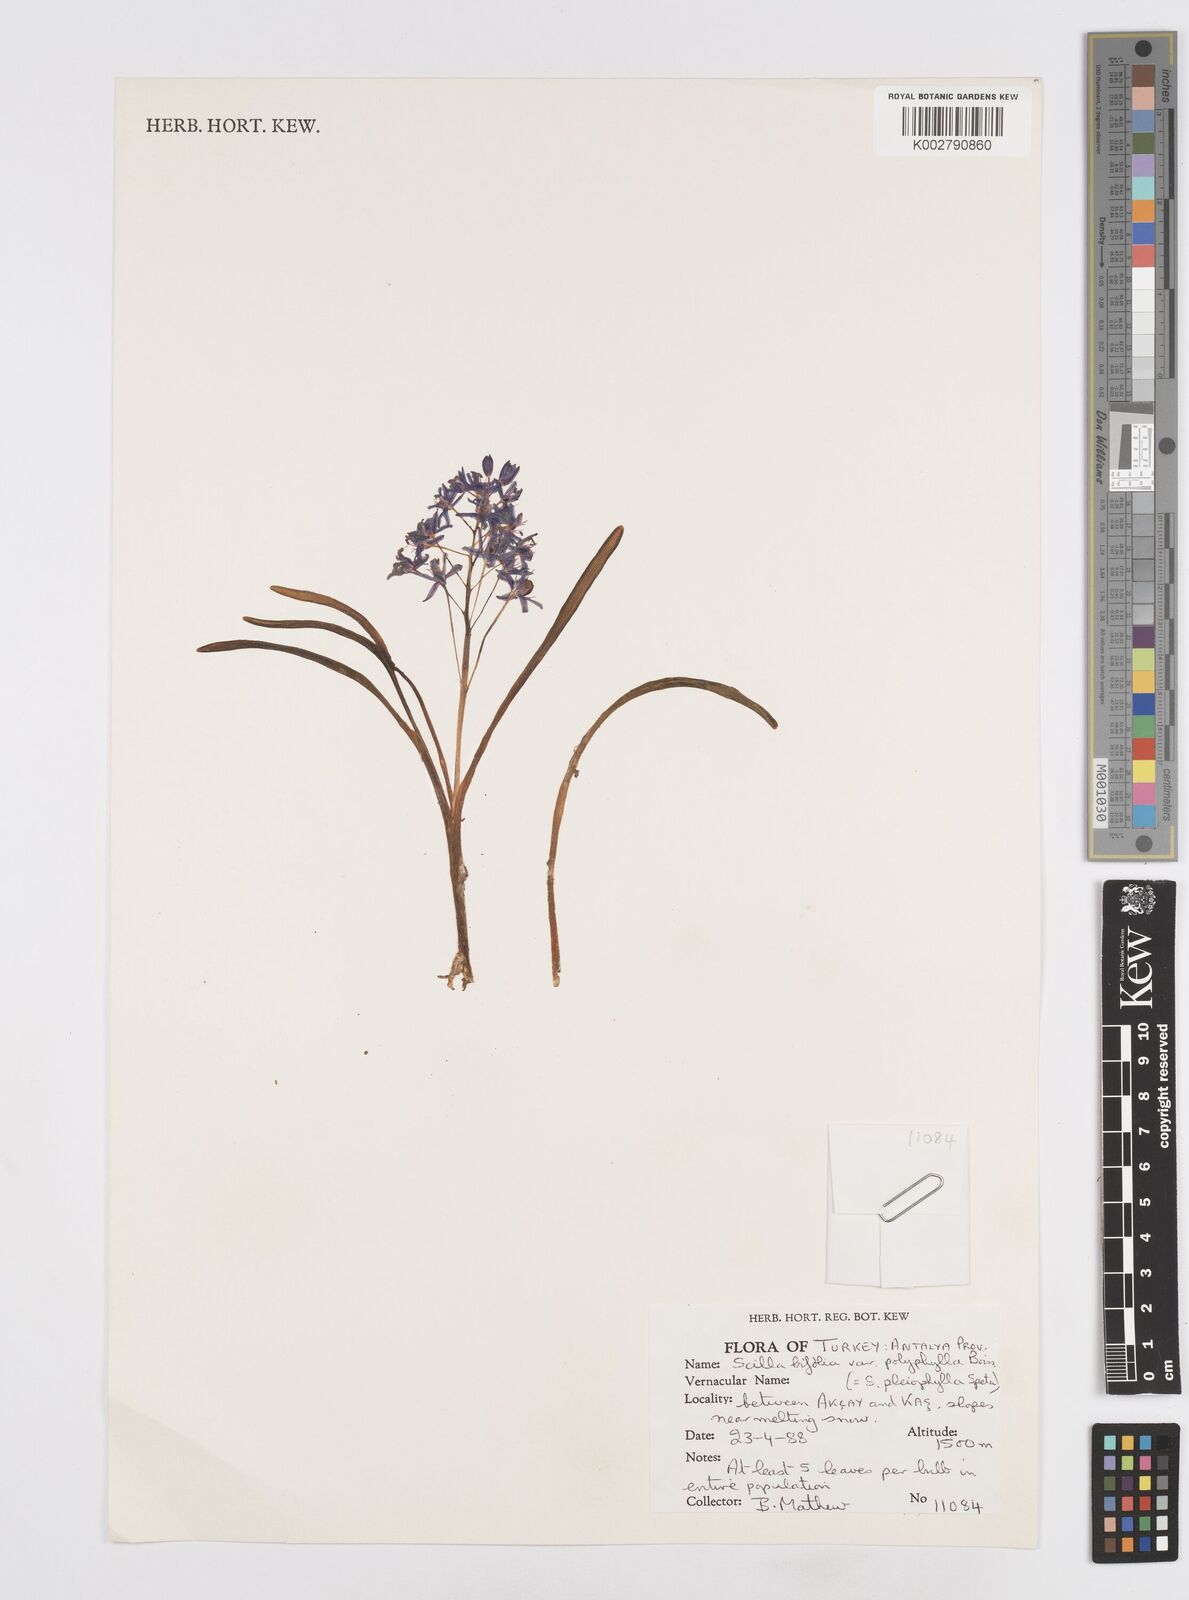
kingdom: Plantae
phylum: Tracheophyta
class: Liliopsida
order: Asparagales
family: Asparagaceae
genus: Scilla
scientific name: Scilla bifolia
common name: Alpine squill
